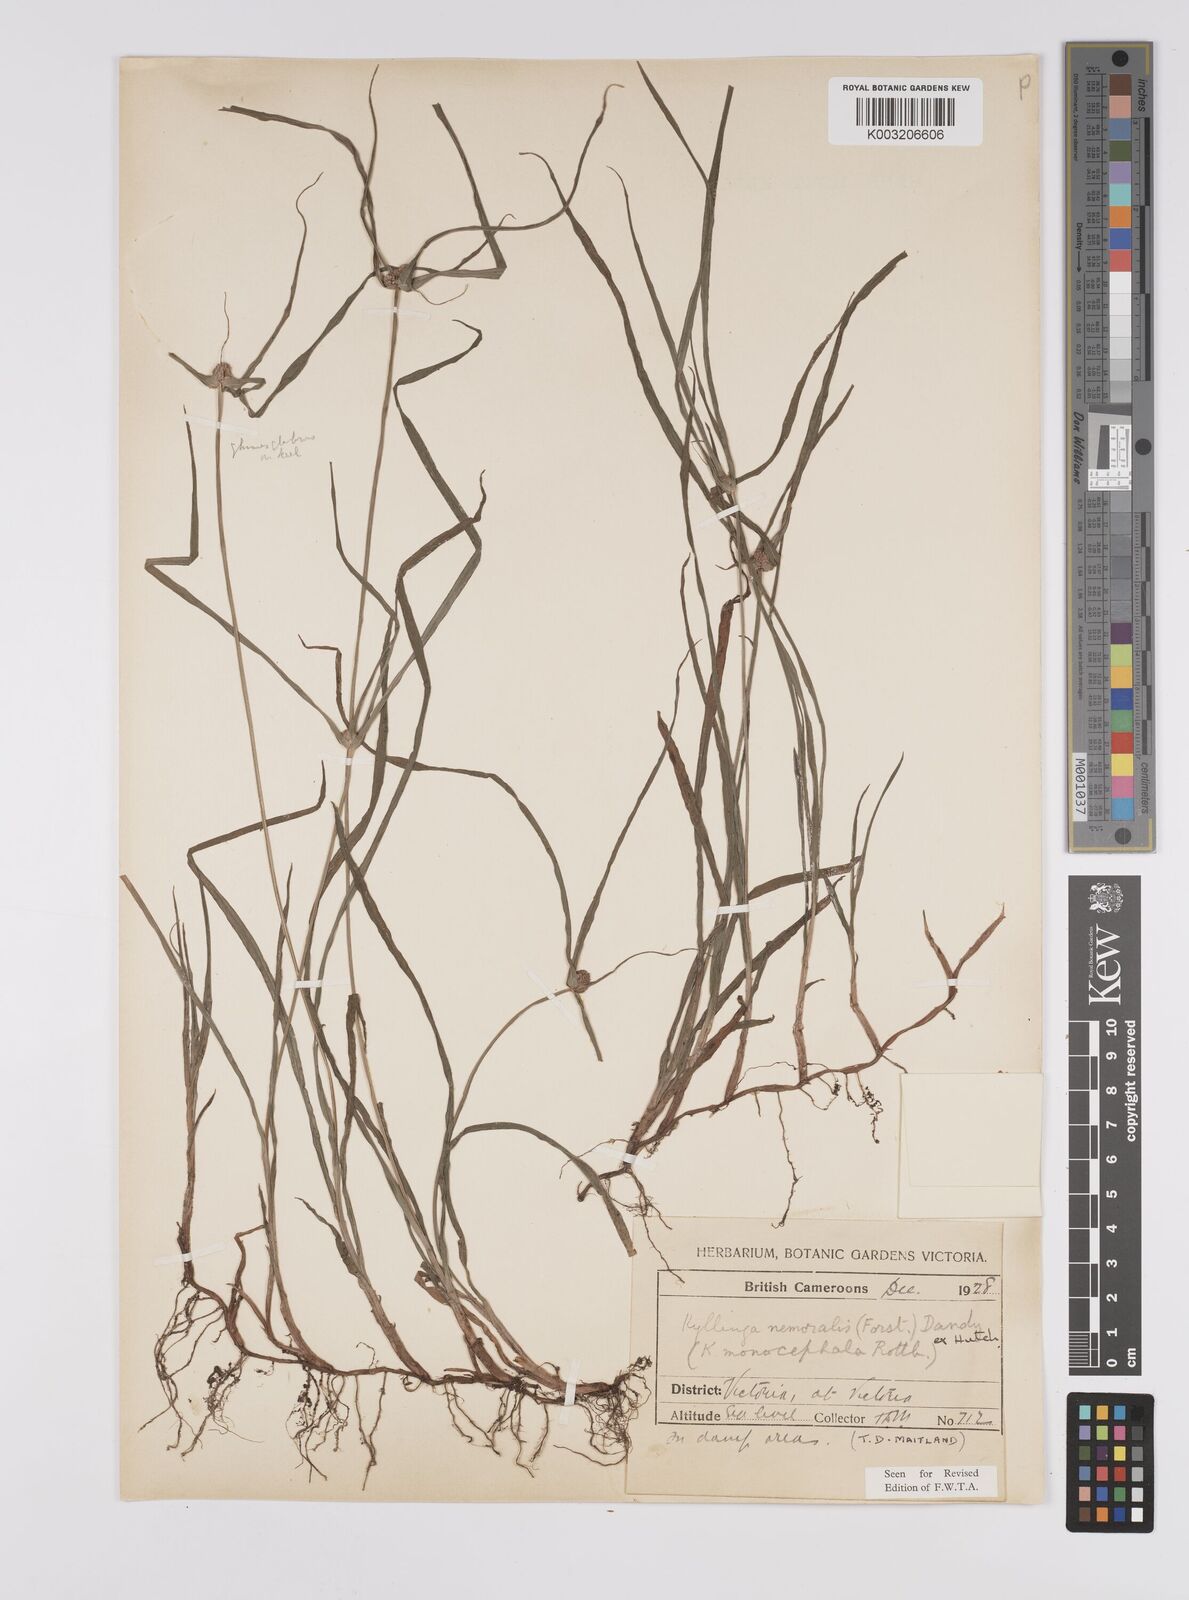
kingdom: Plantae
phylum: Tracheophyta
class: Liliopsida
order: Poales
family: Cyperaceae
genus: Cyperus
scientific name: Cyperus nemoralis
